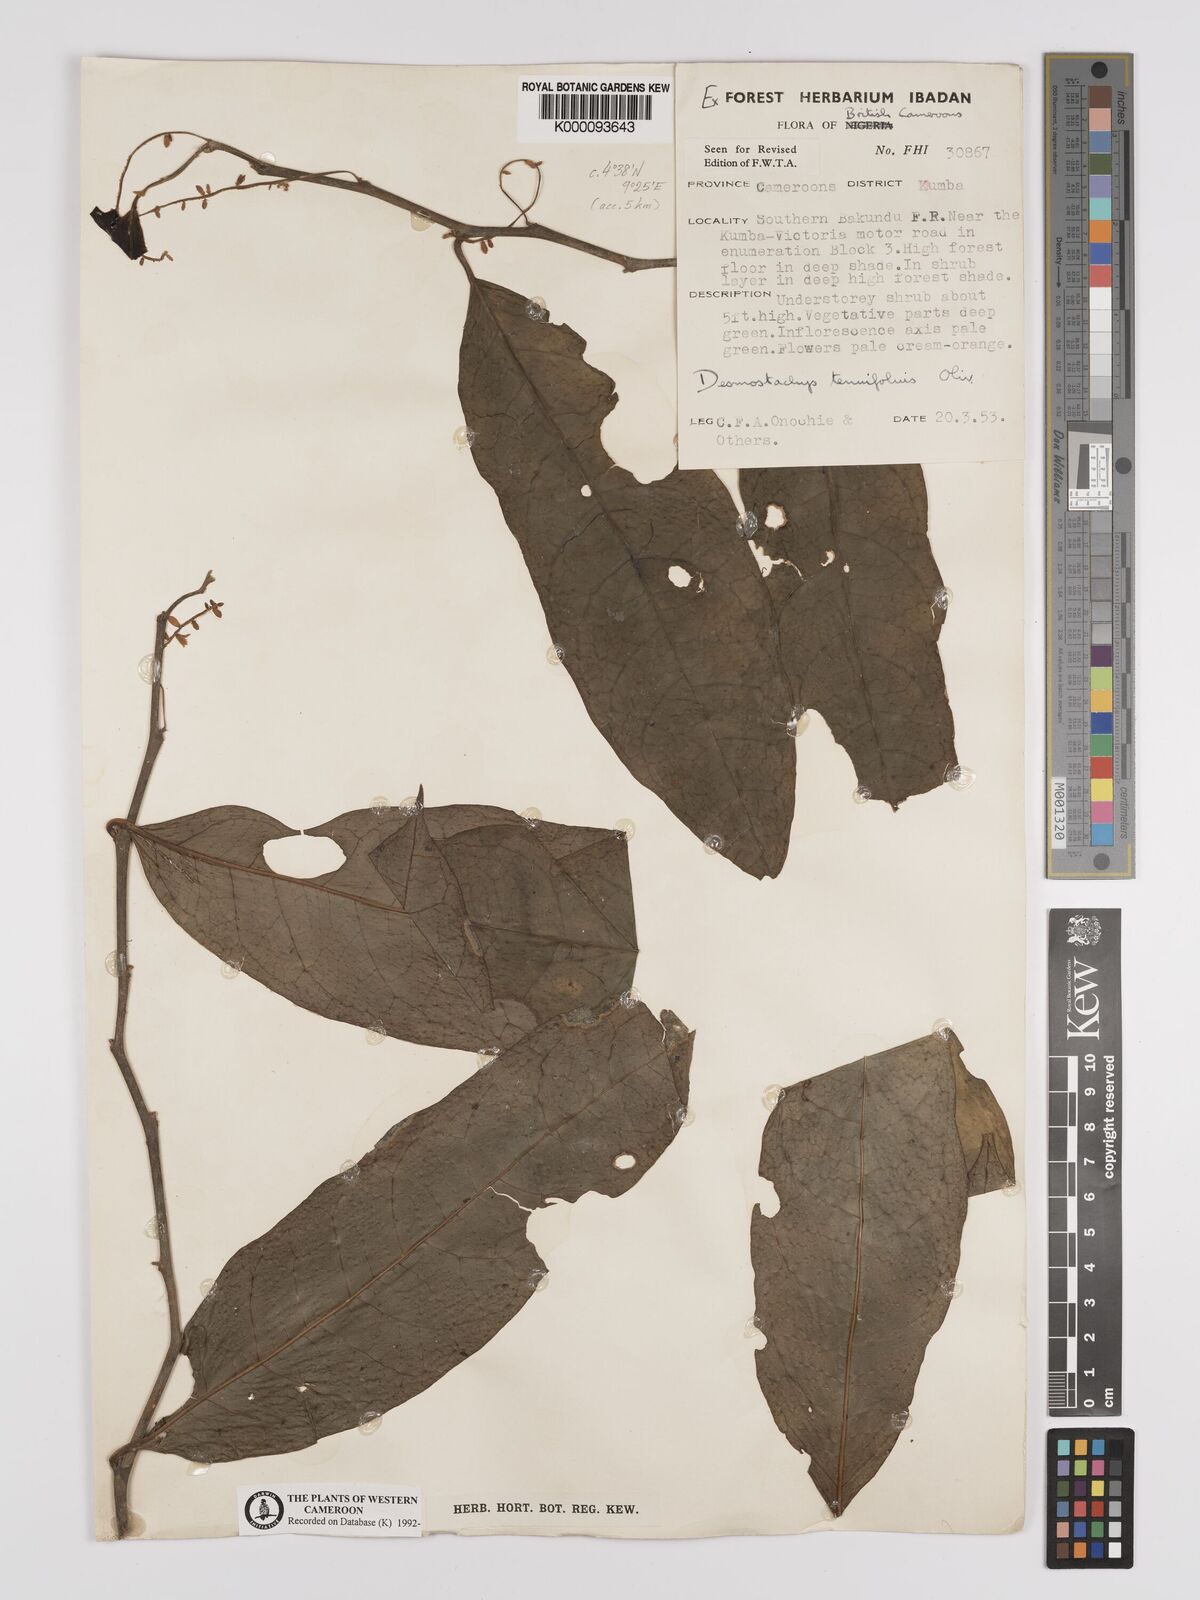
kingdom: Plantae
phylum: Tracheophyta
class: Magnoliopsida
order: Icacinales
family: Icacinaceae
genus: Vadensea
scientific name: Vadensea tenuifolia
